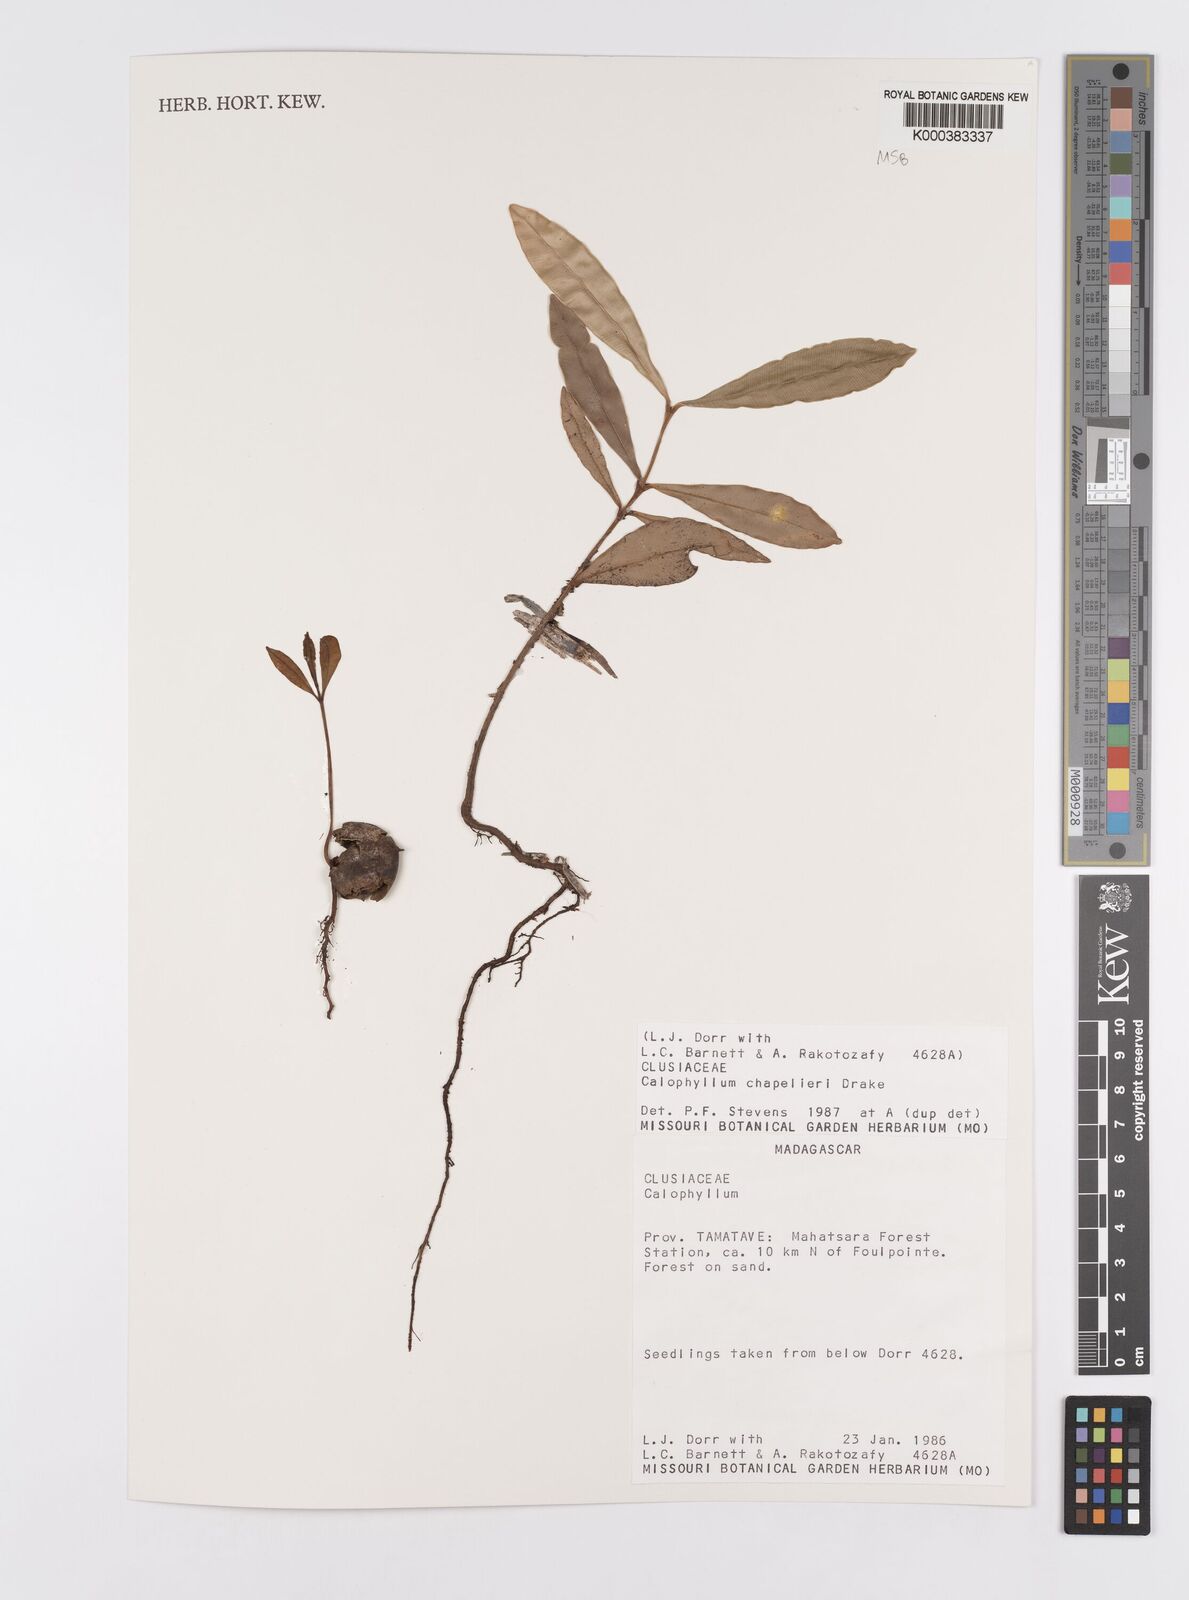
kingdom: Plantae
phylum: Tracheophyta
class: Magnoliopsida
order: Malpighiales
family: Calophyllaceae
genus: Calophyllum
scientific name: Calophyllum chapelieri
